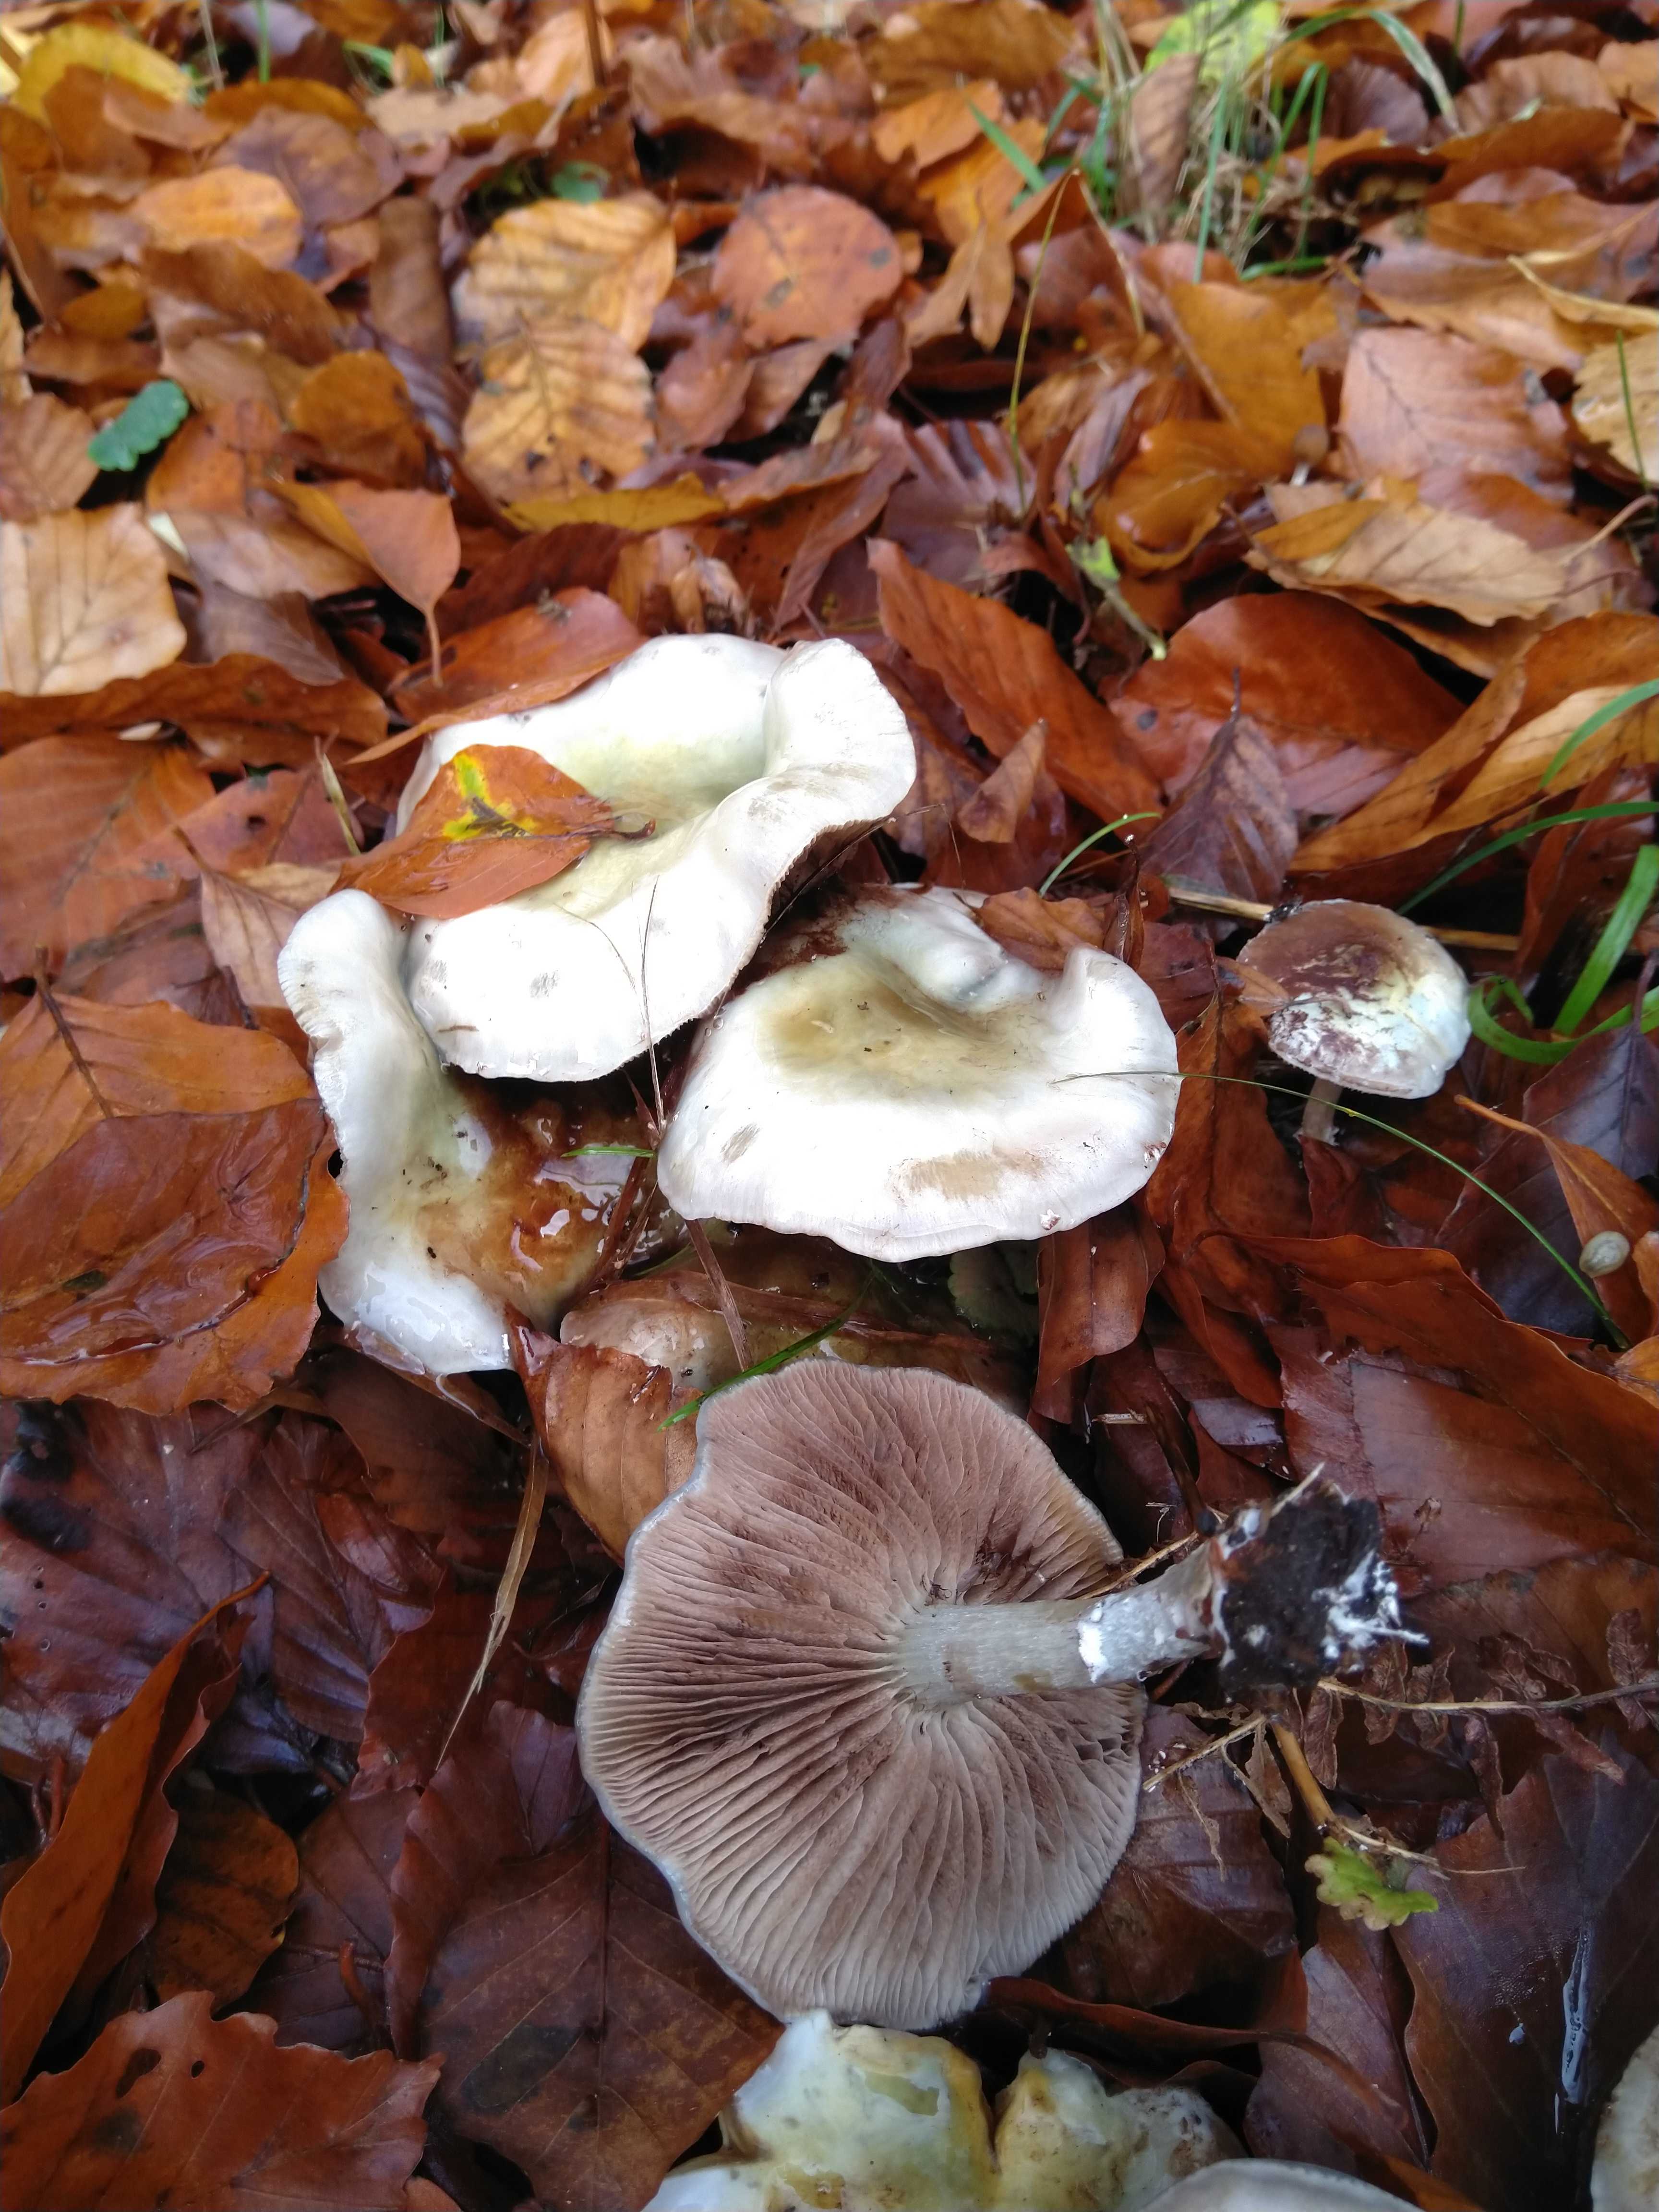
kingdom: Fungi
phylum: Basidiomycota
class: Agaricomycetes
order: Agaricales
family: Strophariaceae
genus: Stropharia
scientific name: Stropharia cyanea
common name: blågrøn bredblad
